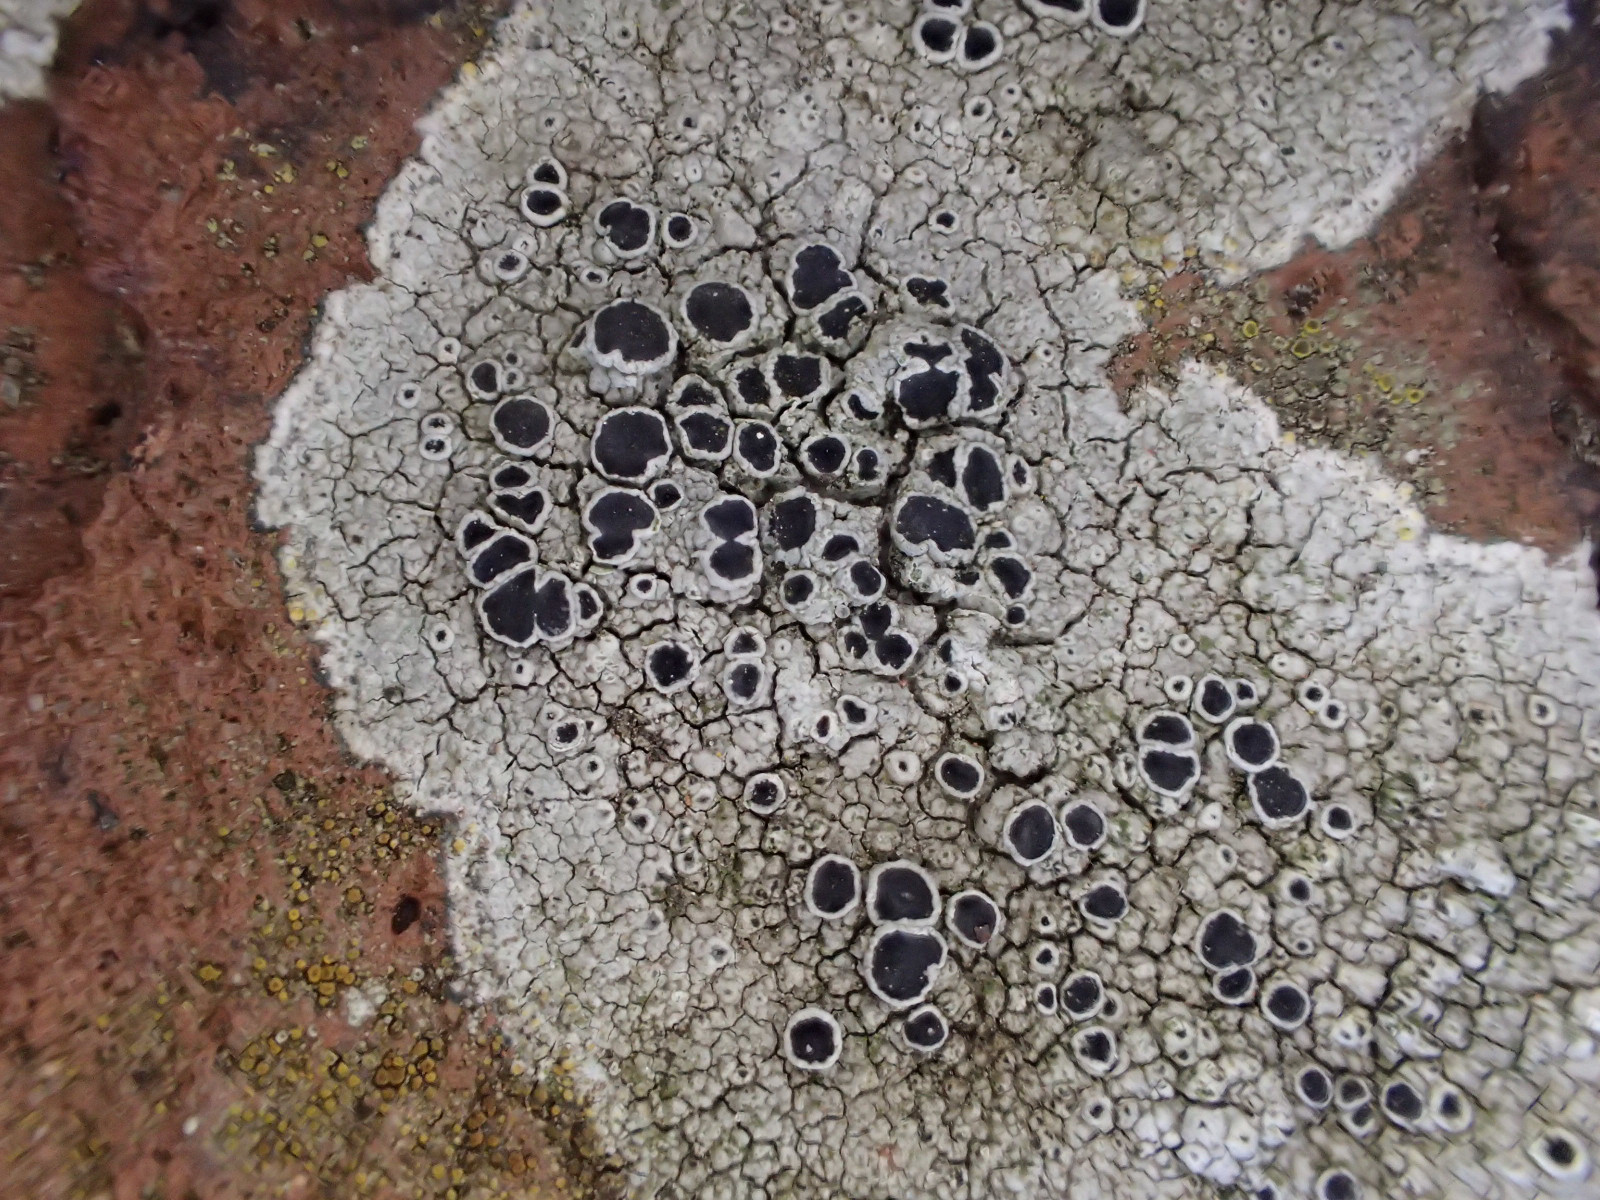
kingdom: Fungi
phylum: Ascomycota
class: Lecanoromycetes
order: Lecanorales
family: Tephromelataceae
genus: Tephromela
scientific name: Tephromela atra
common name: sortfrugtet kantskivelav
